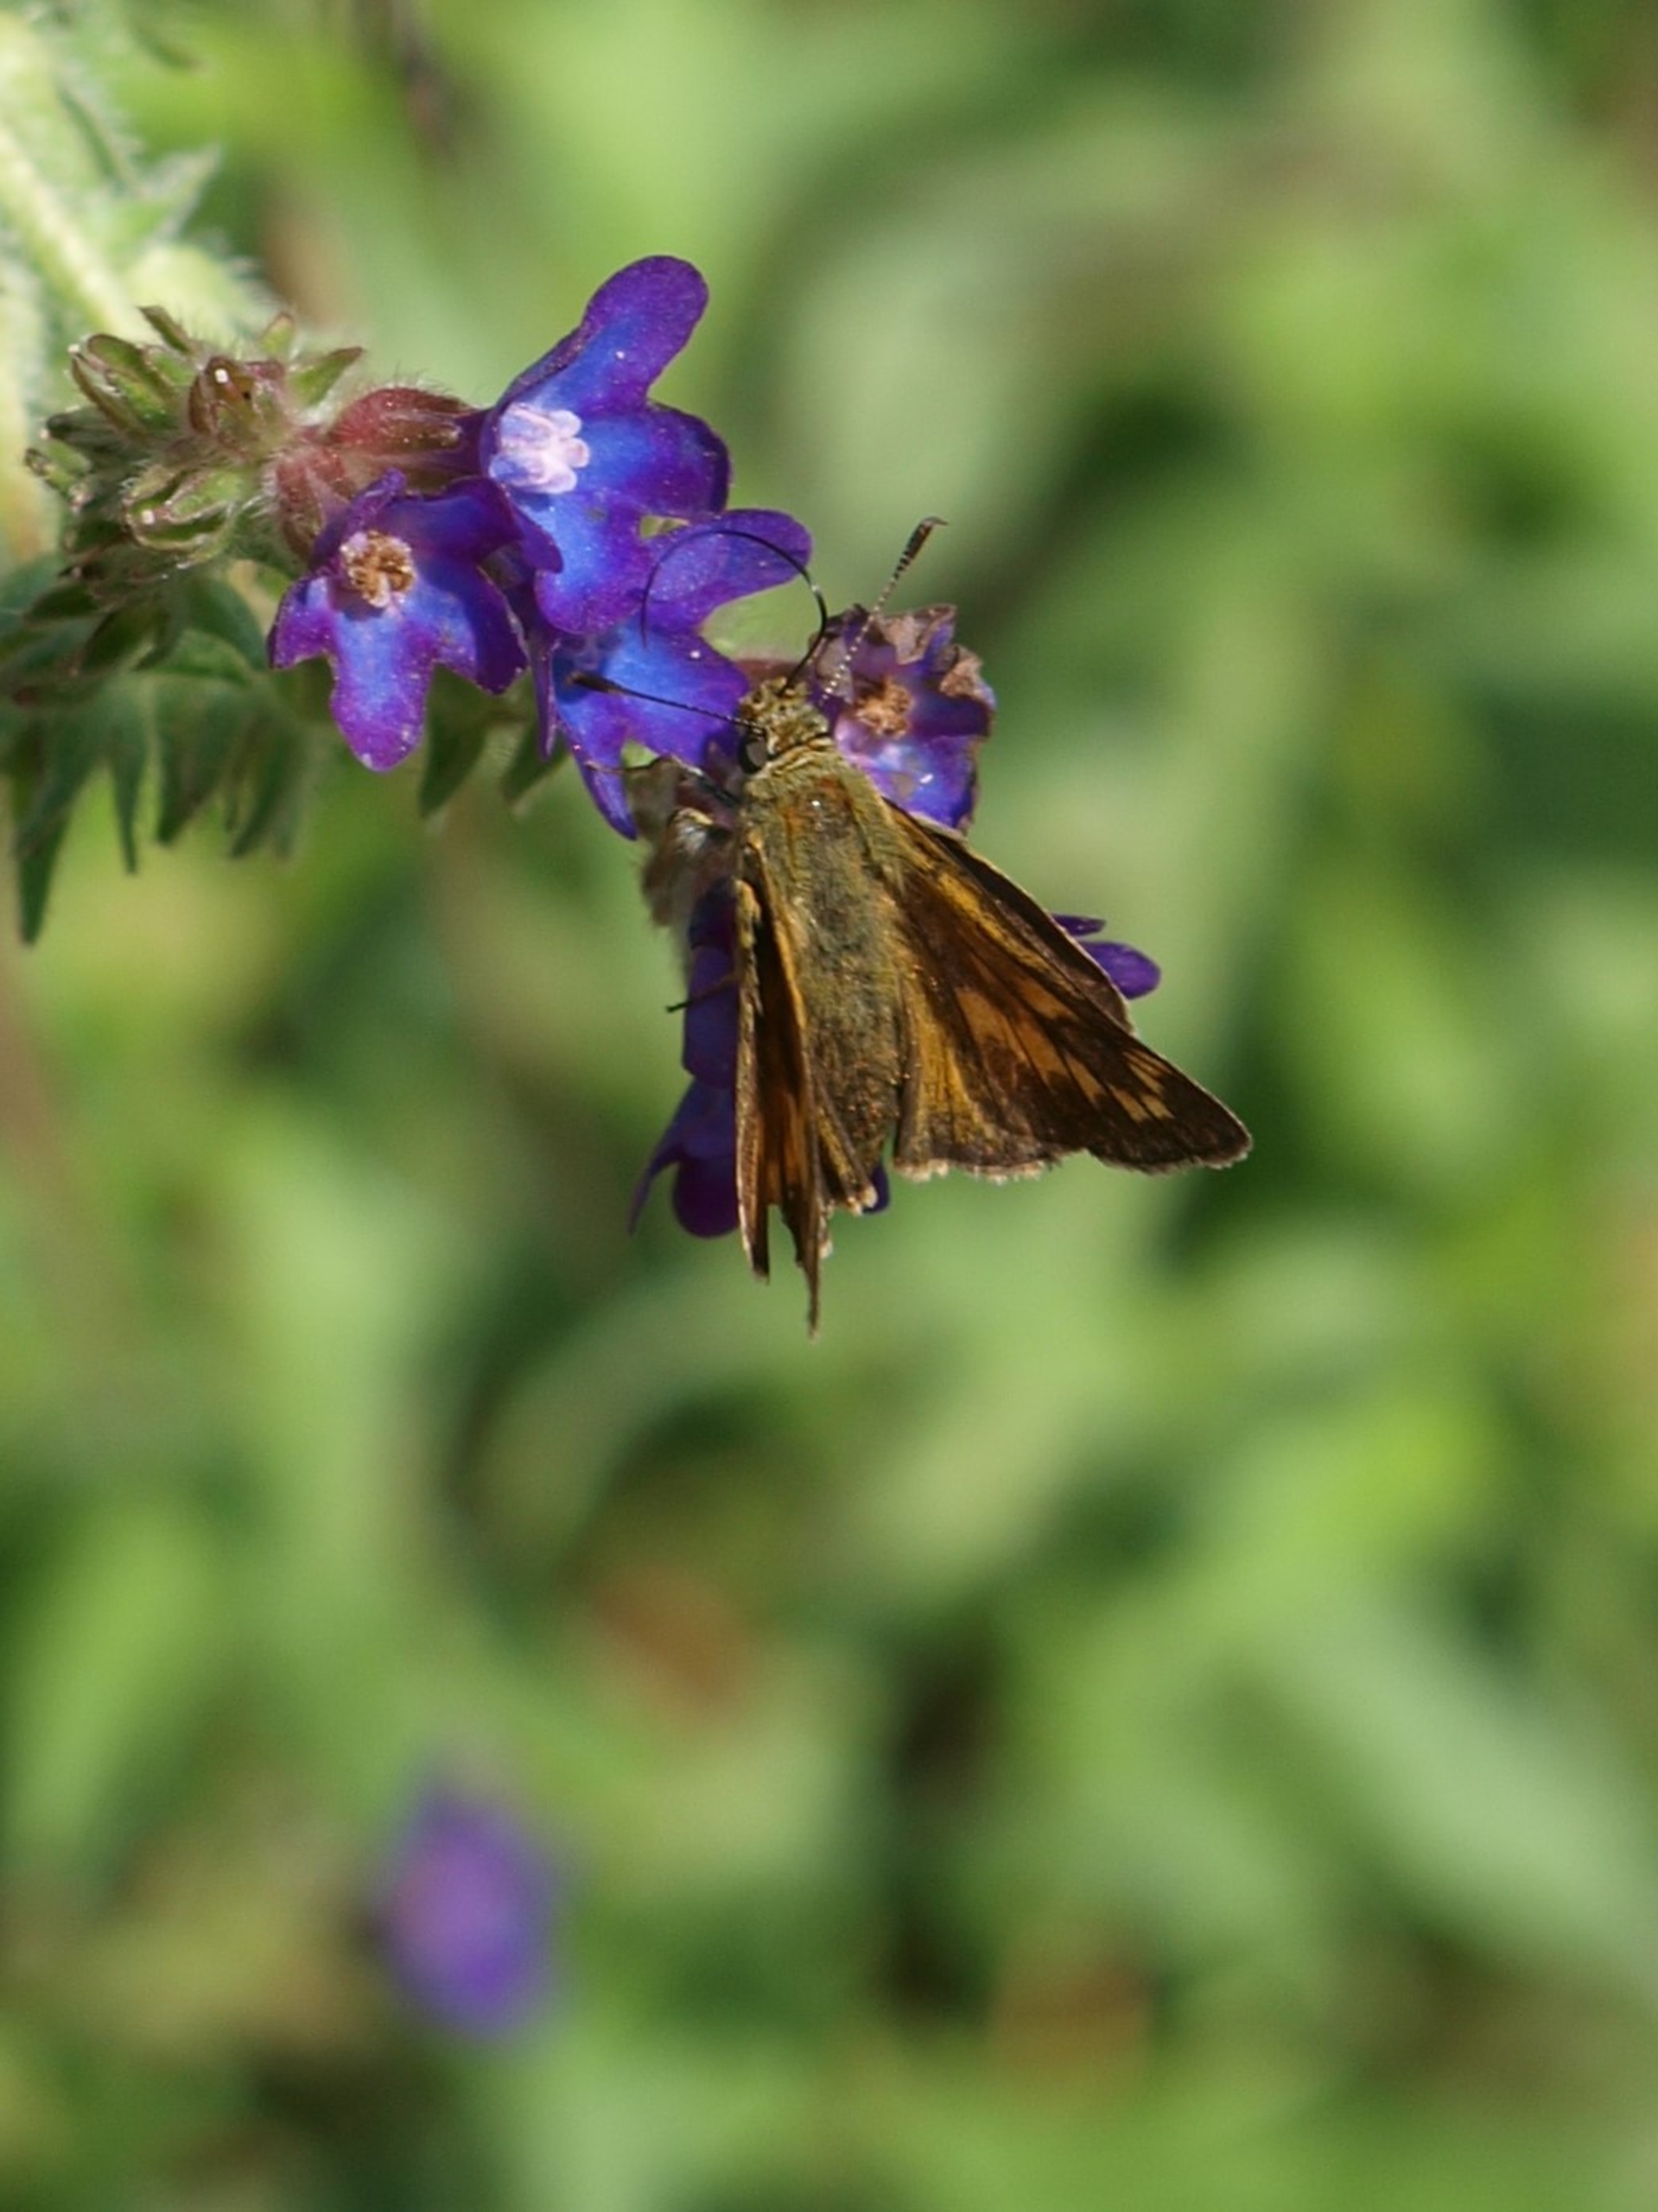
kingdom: Animalia
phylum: Arthropoda
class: Insecta
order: Lepidoptera
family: Hesperiidae
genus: Ochlodes
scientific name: Ochlodes venata
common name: Stor bredpande
